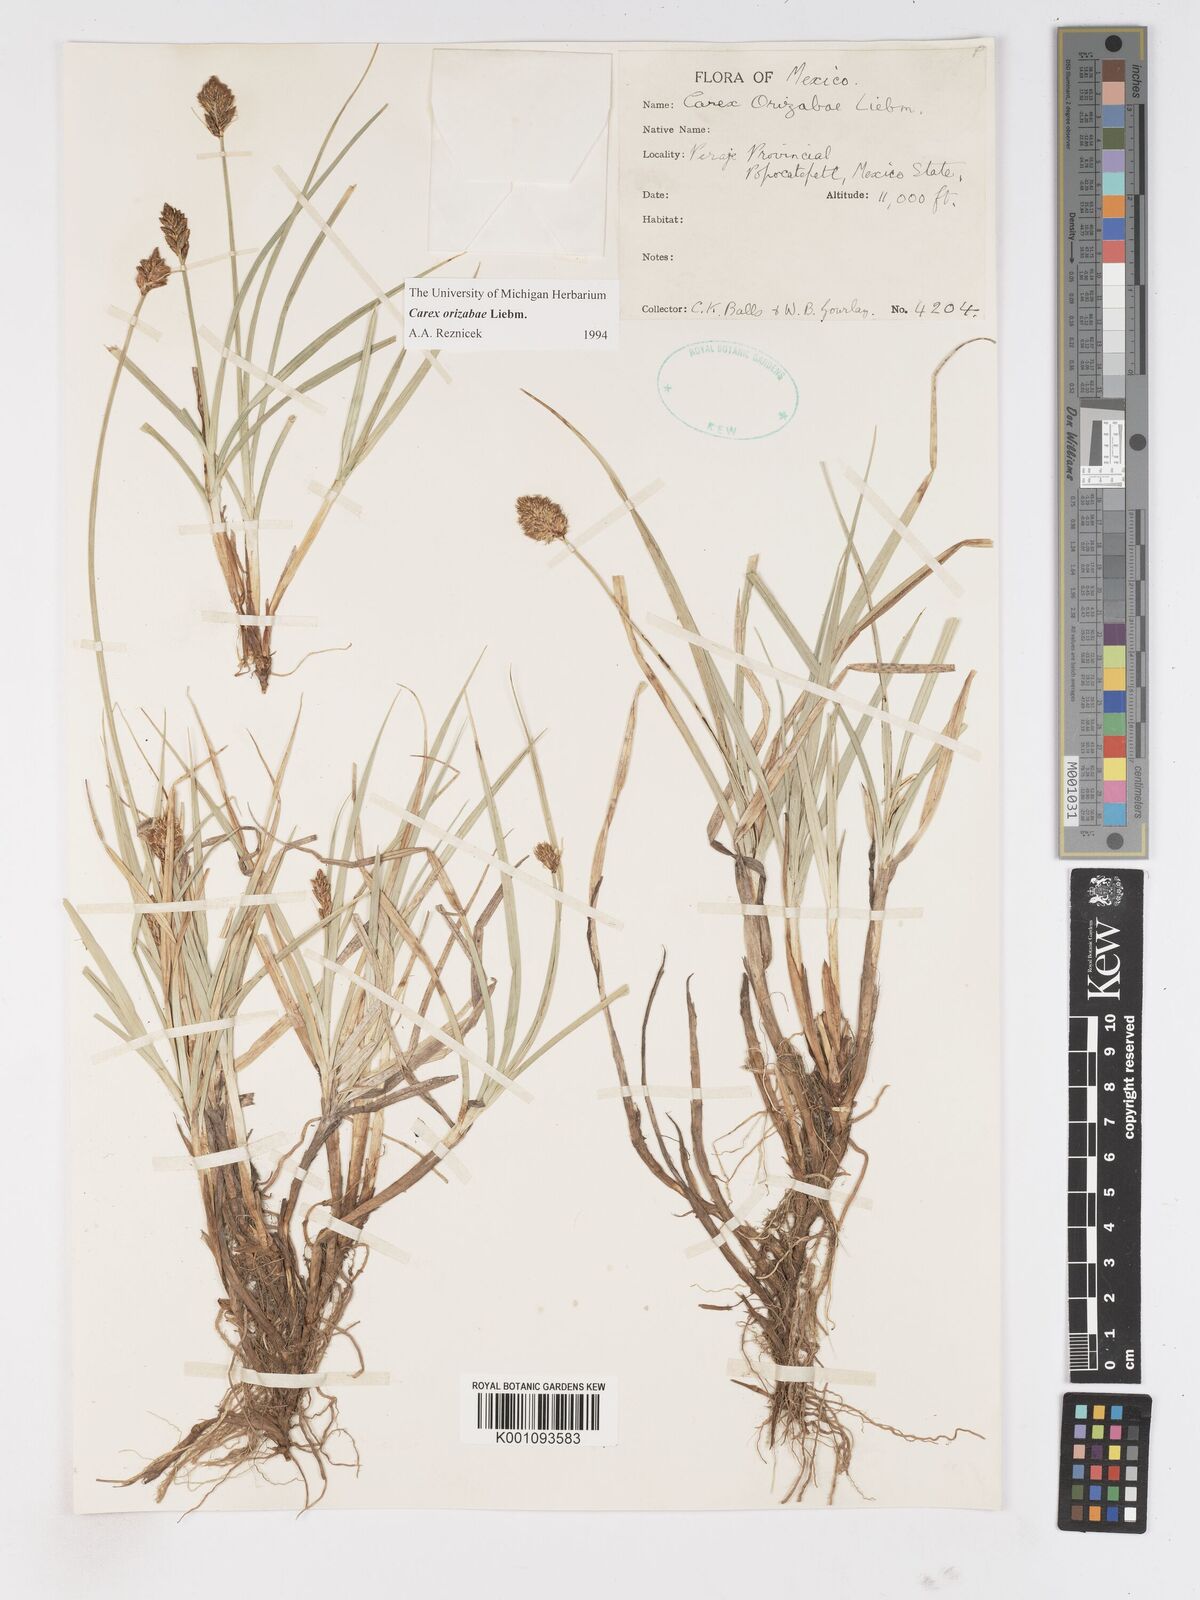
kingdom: Plantae
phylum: Tracheophyta
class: Liliopsida
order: Poales
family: Cyperaceae
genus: Carex
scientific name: Carex orizabae
